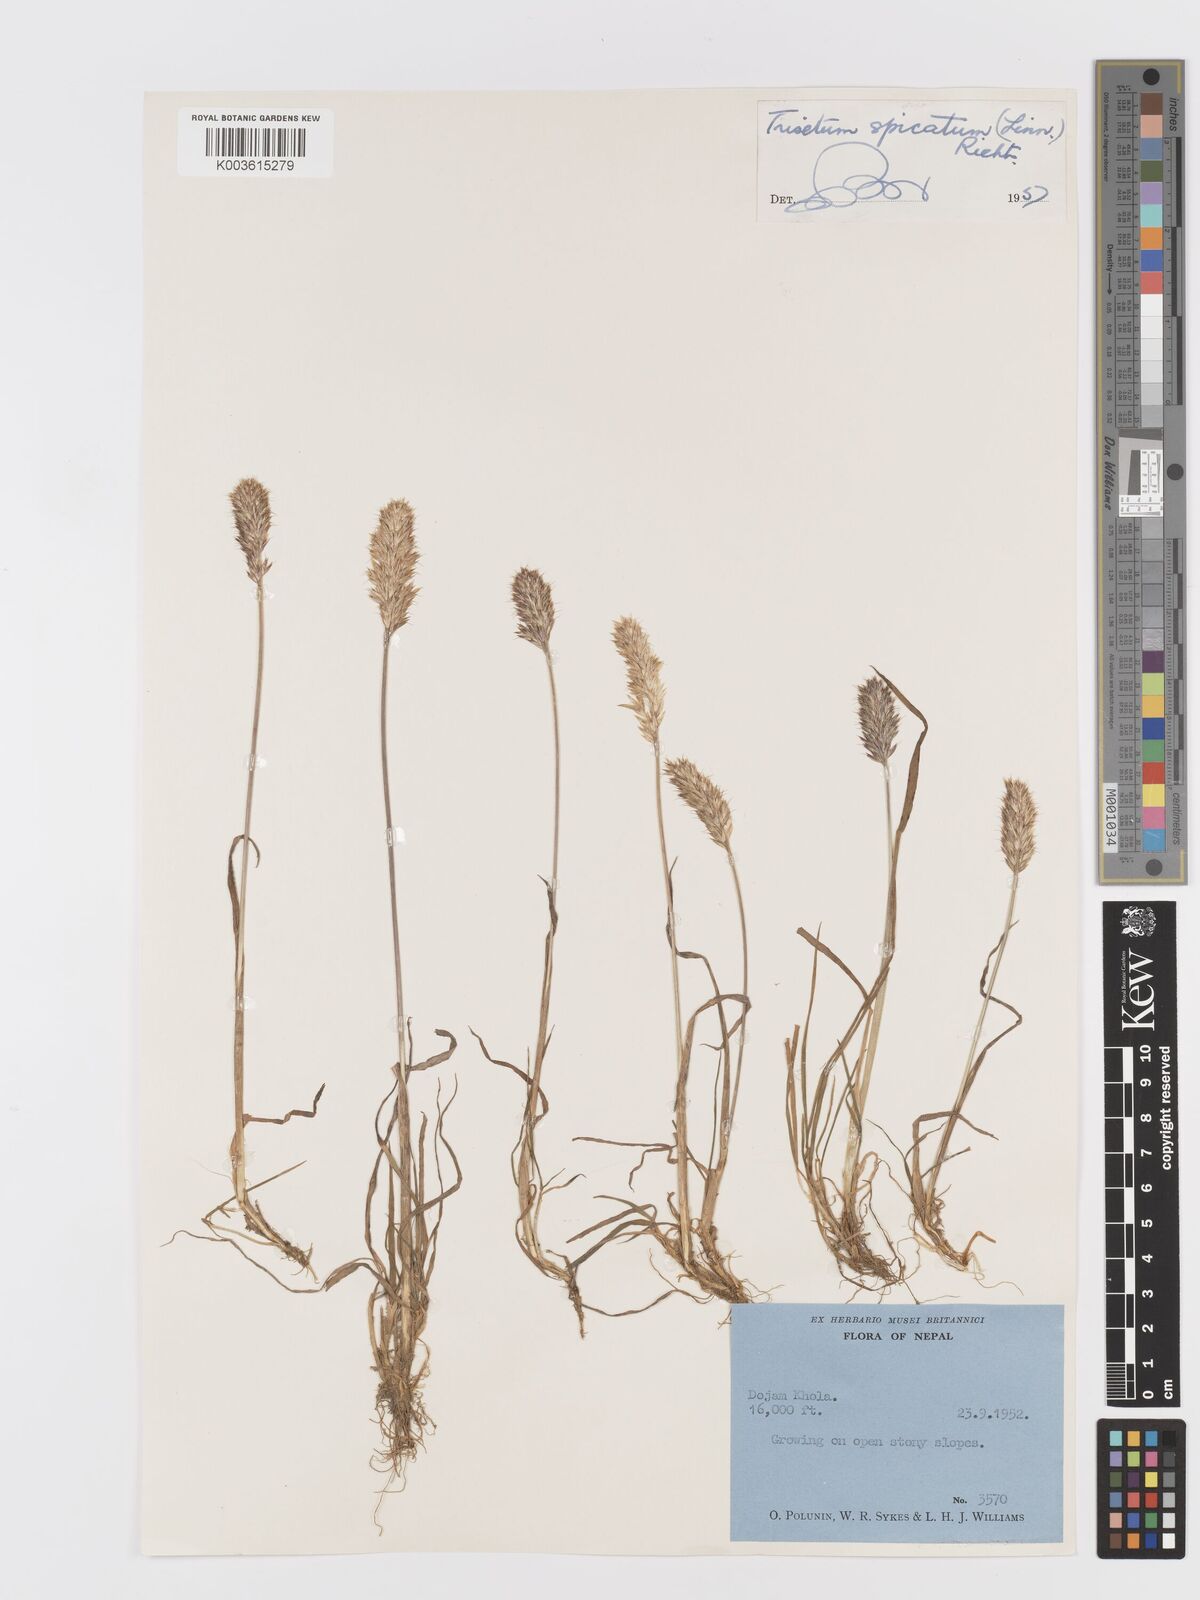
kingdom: Plantae
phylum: Tracheophyta
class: Liliopsida
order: Poales
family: Poaceae
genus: Koeleria
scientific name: Koeleria spicata
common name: Mountain trisetum
